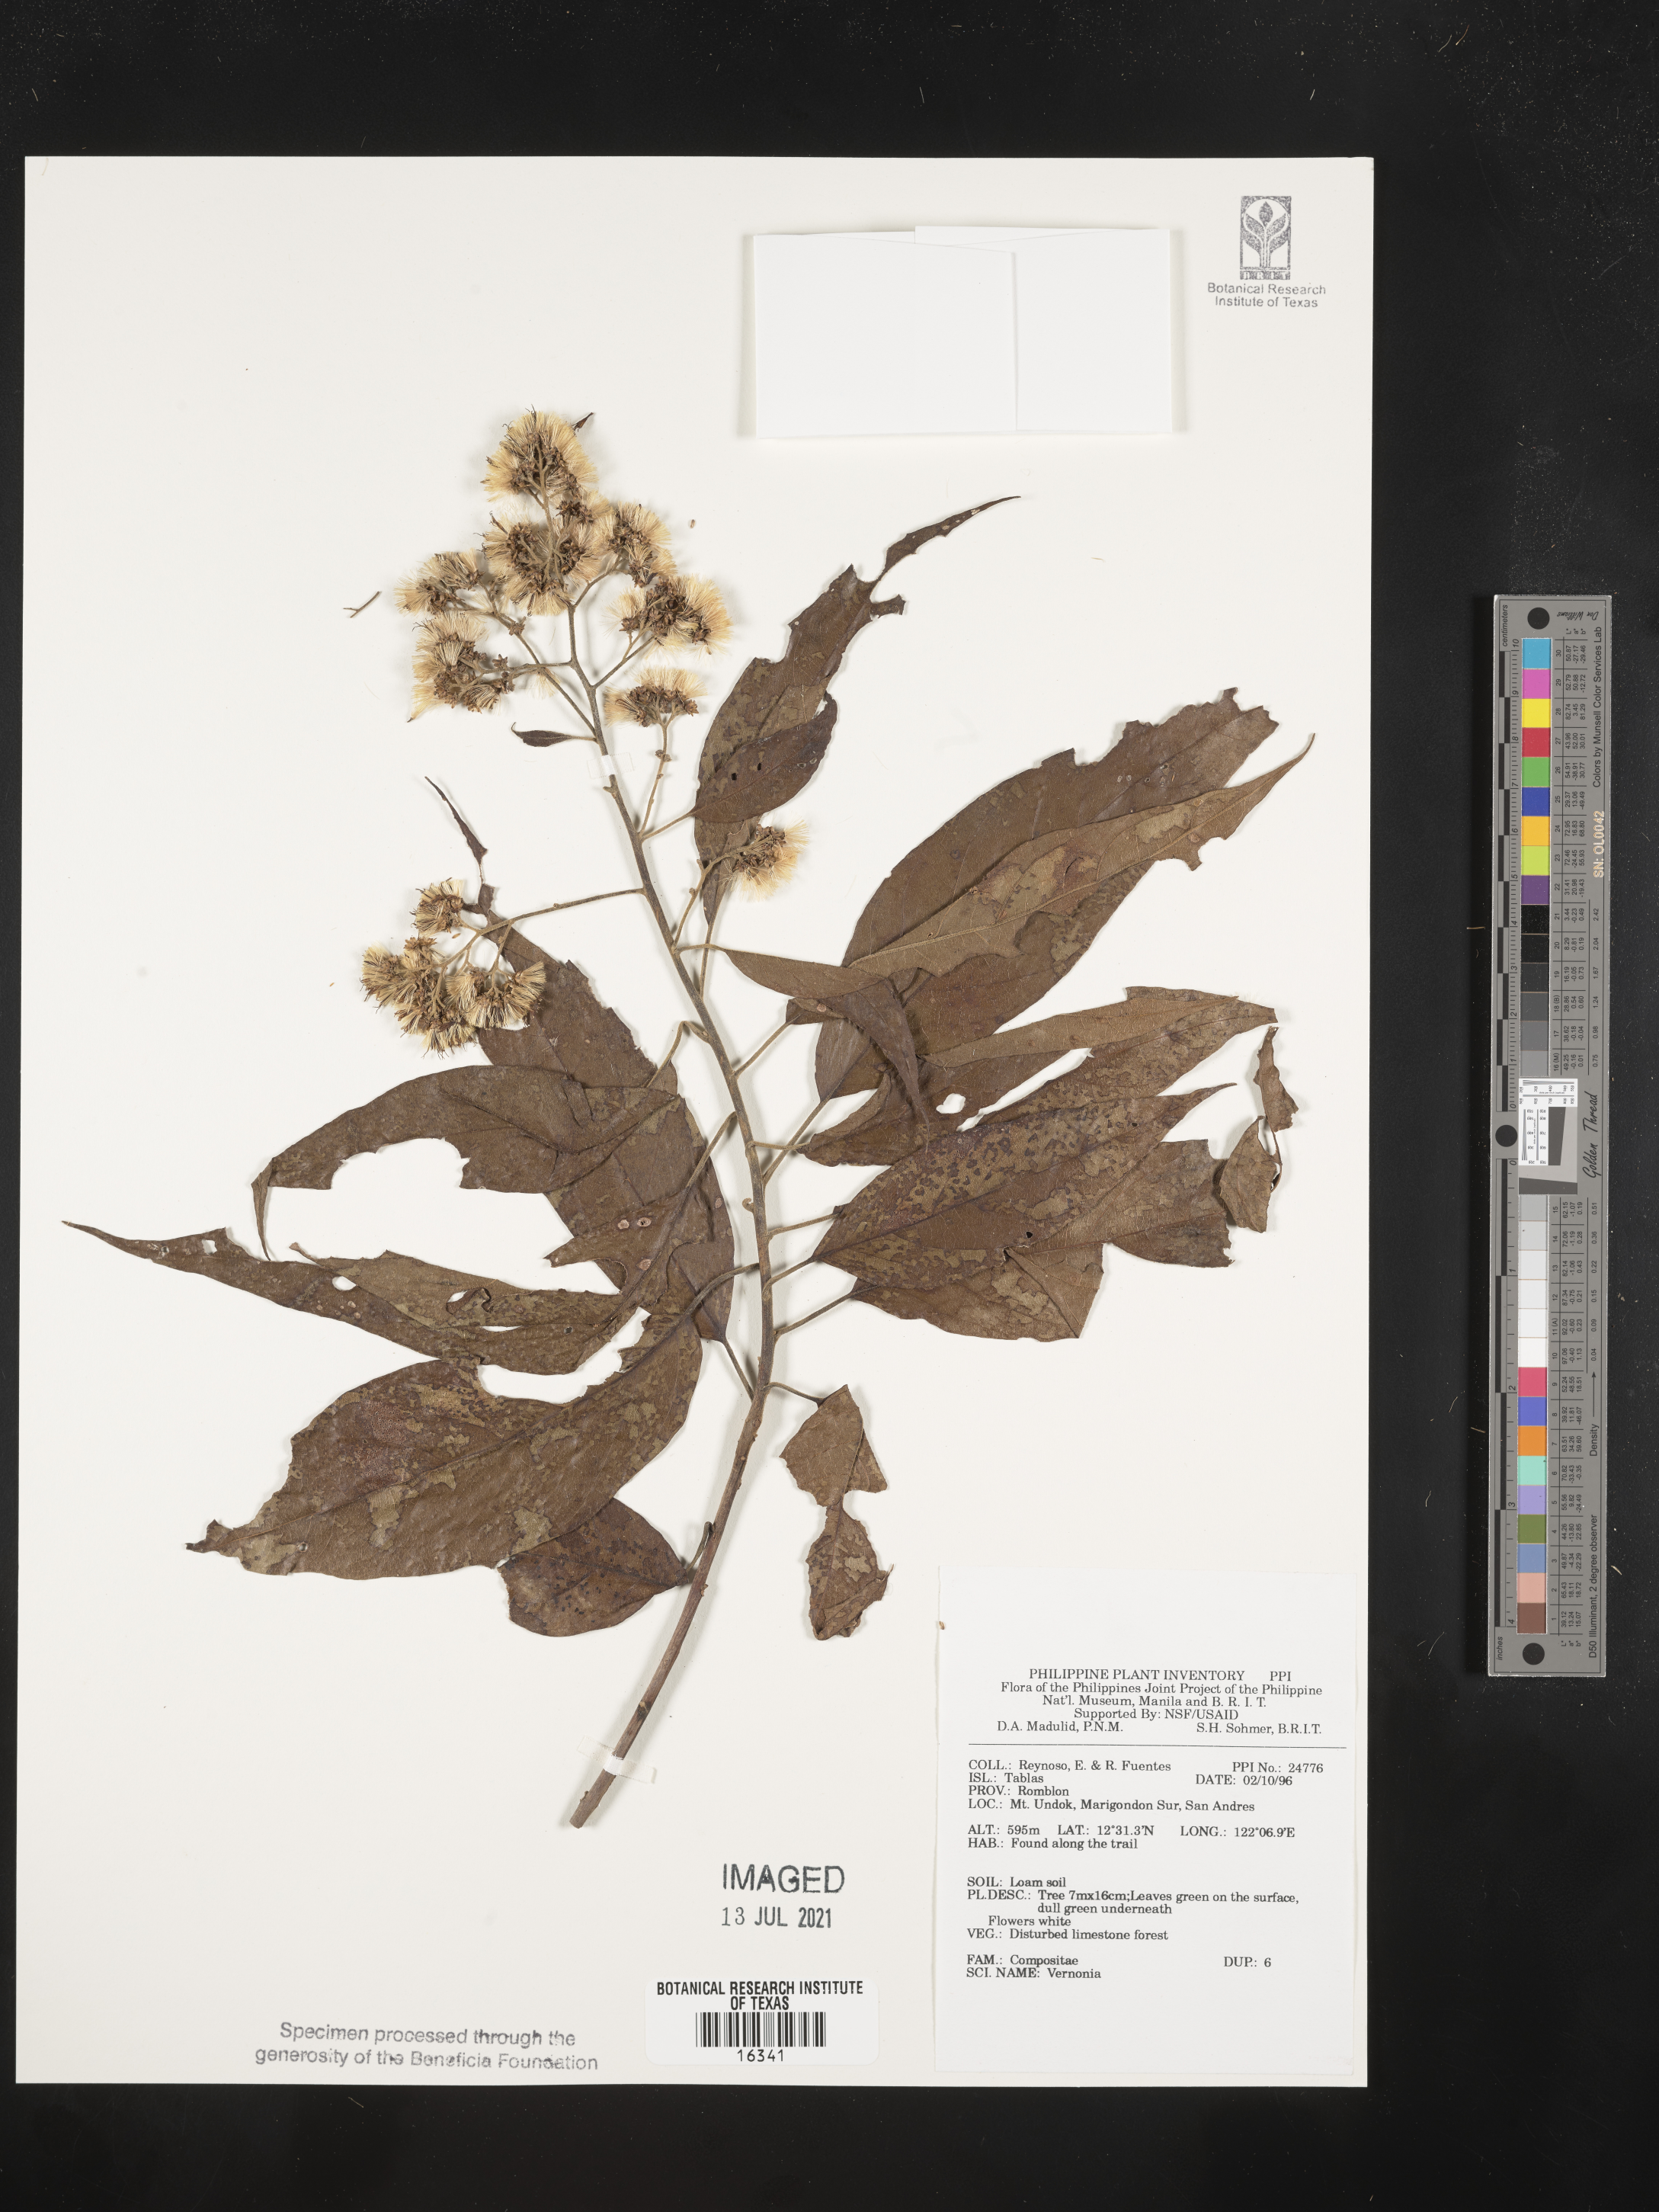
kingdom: Plantae
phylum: Tracheophyta
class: Magnoliopsida
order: Asterales
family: Asteraceae
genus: Vernonia
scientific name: Vernonia
